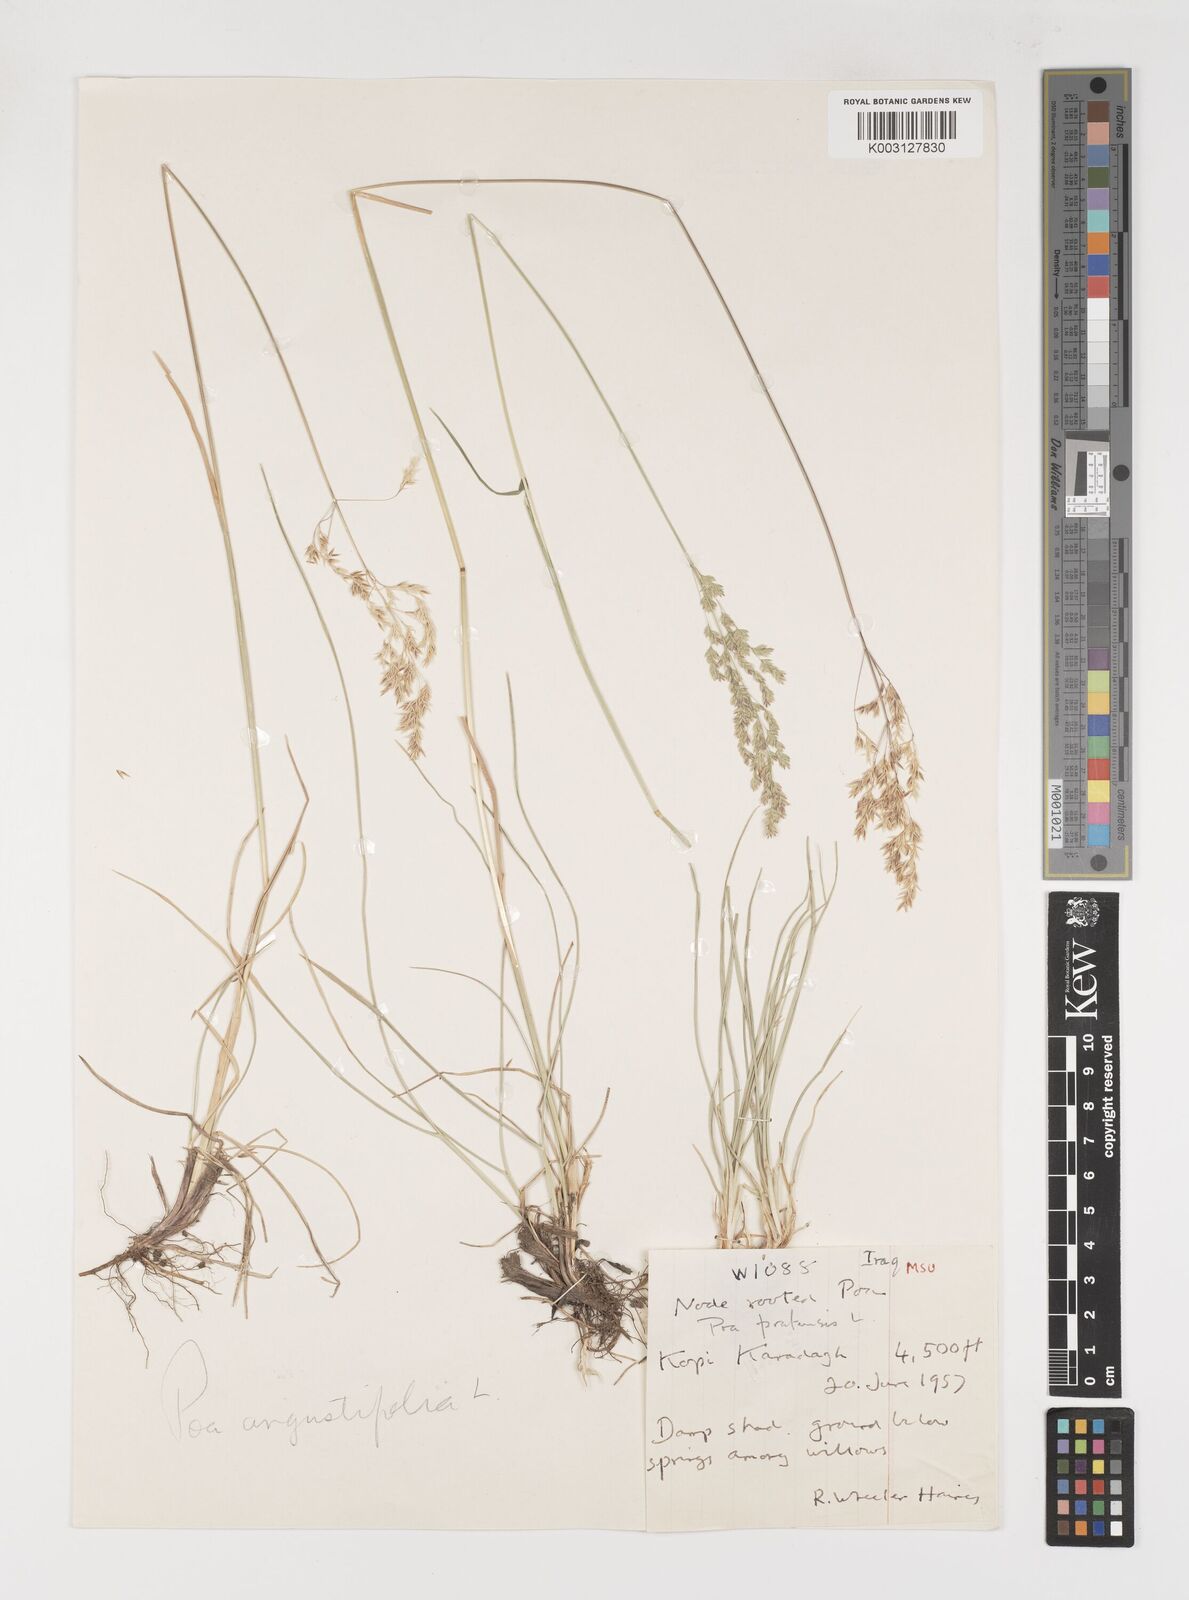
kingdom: Plantae
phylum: Tracheophyta
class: Liliopsida
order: Poales
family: Poaceae
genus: Poa
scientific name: Poa angustifolia
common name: Narrow-leaved meadow-grass
